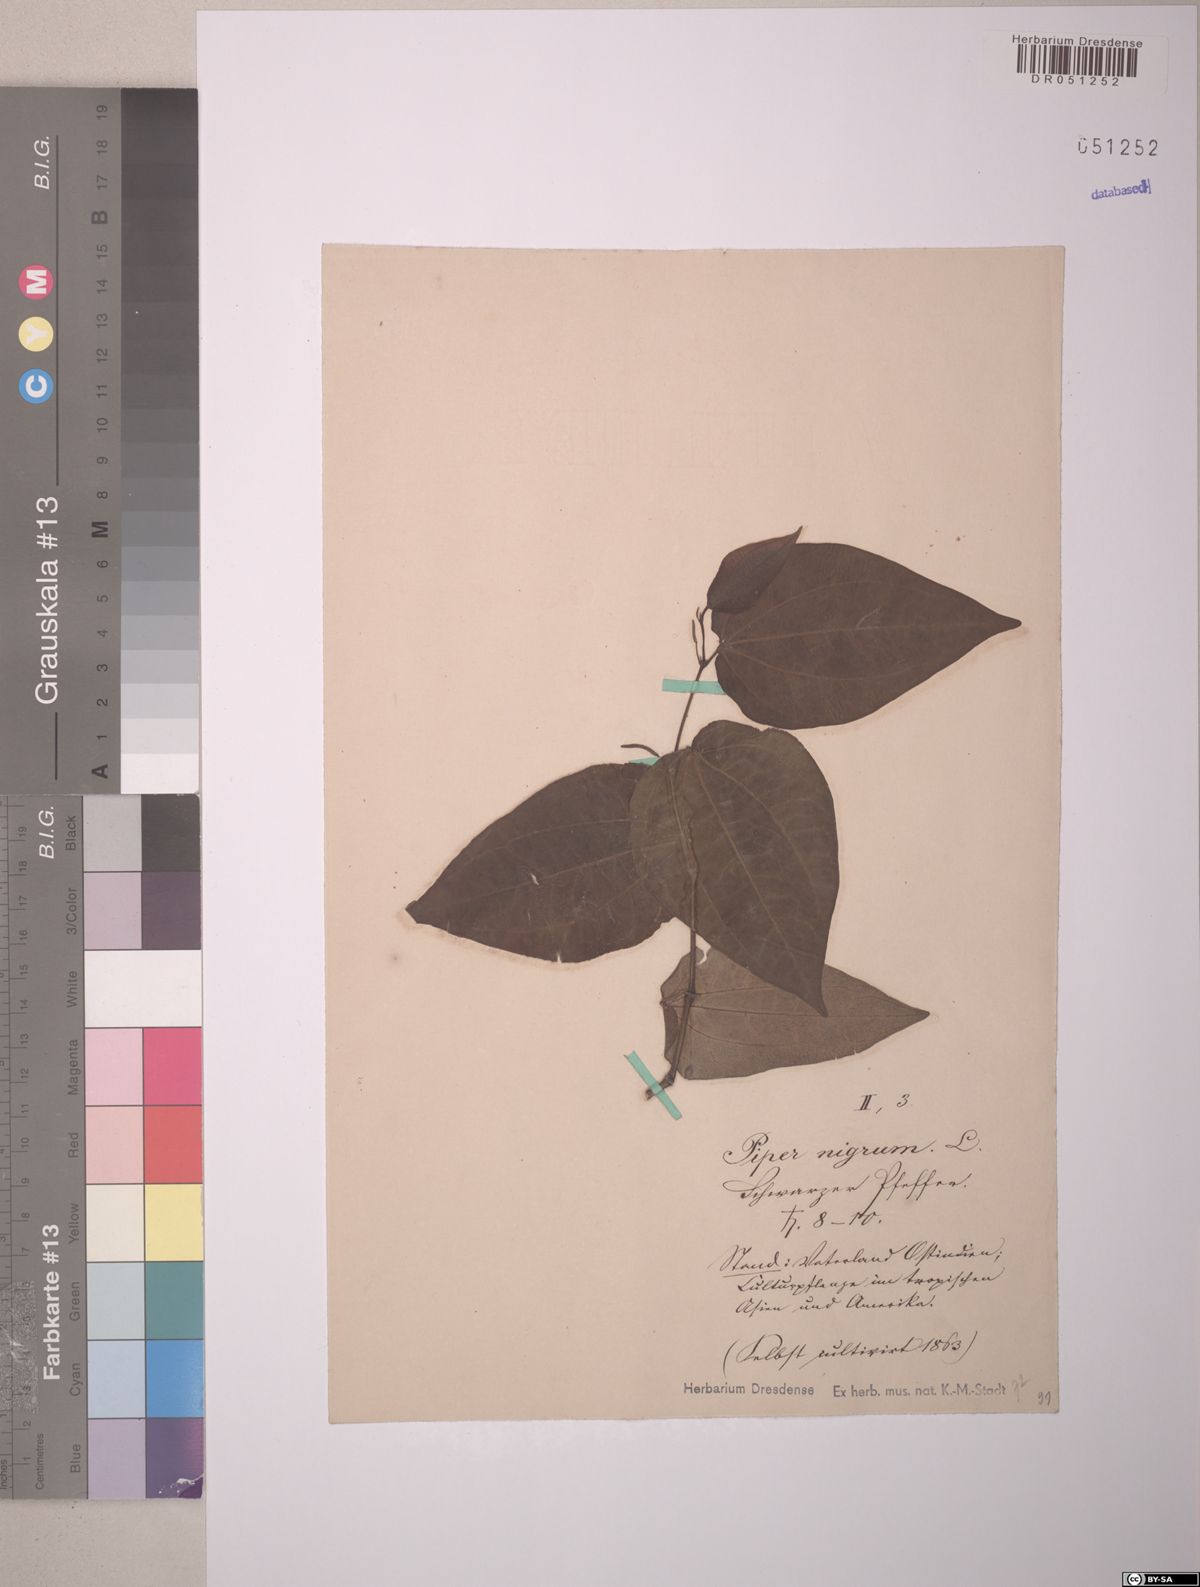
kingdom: Plantae
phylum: Tracheophyta
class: Magnoliopsida
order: Piperales
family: Piperaceae
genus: Piper
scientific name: Piper nigrum
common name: Black pepper
